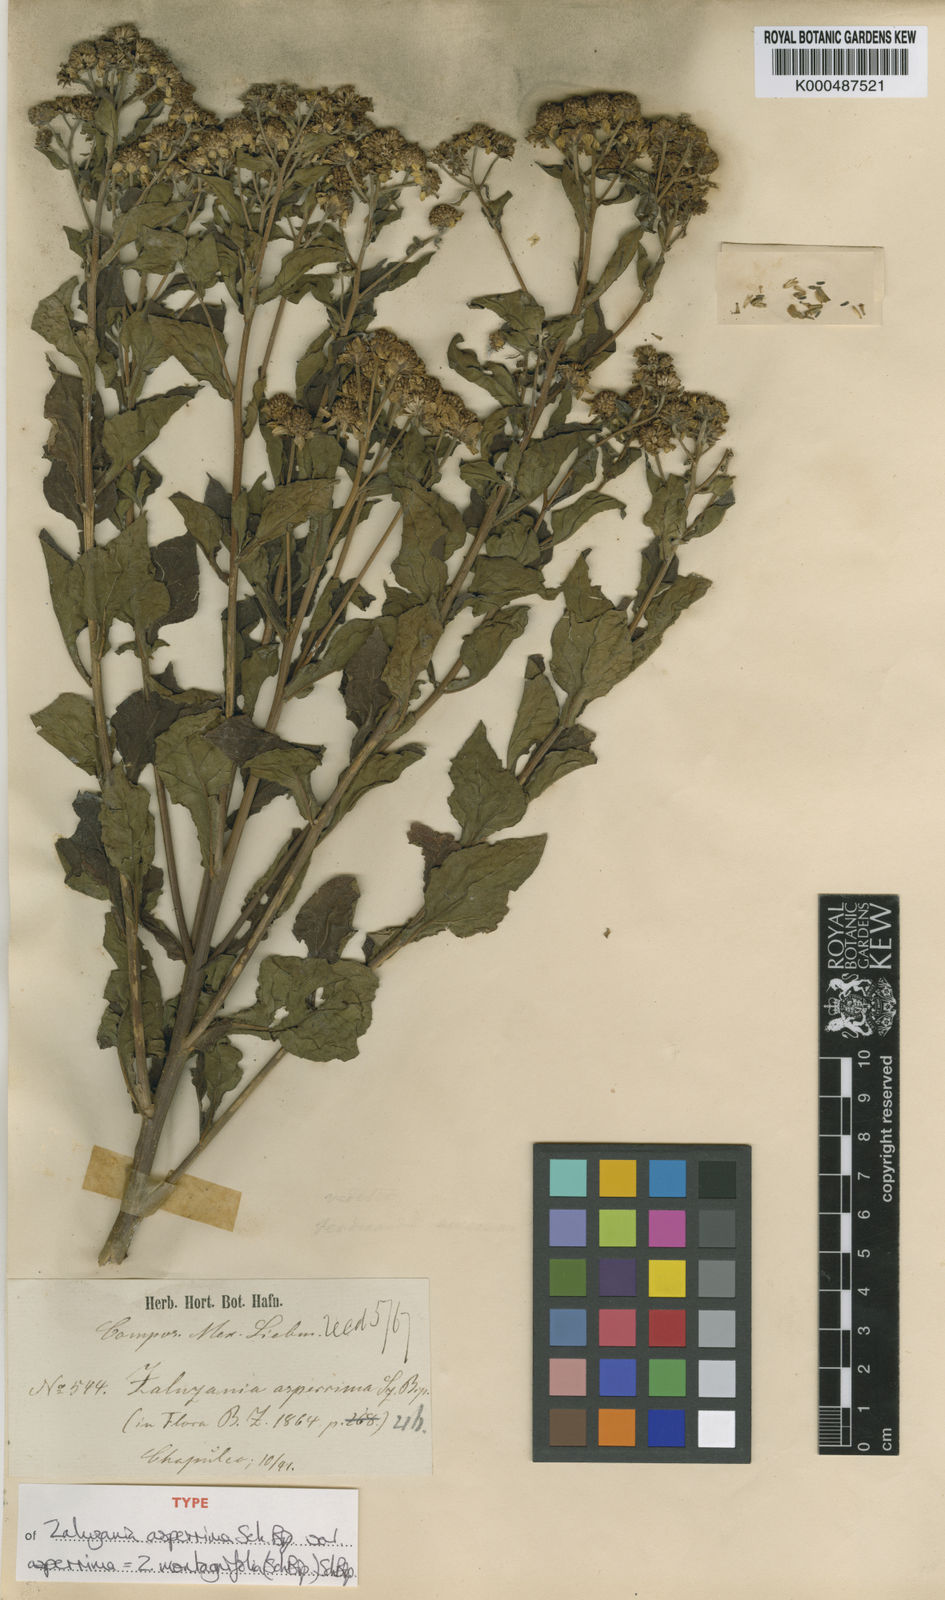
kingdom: Plantae
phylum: Tracheophyta
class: Magnoliopsida
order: Asterales
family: Asteraceae
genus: Zaluzania
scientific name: Zaluzania montagnaefolia
